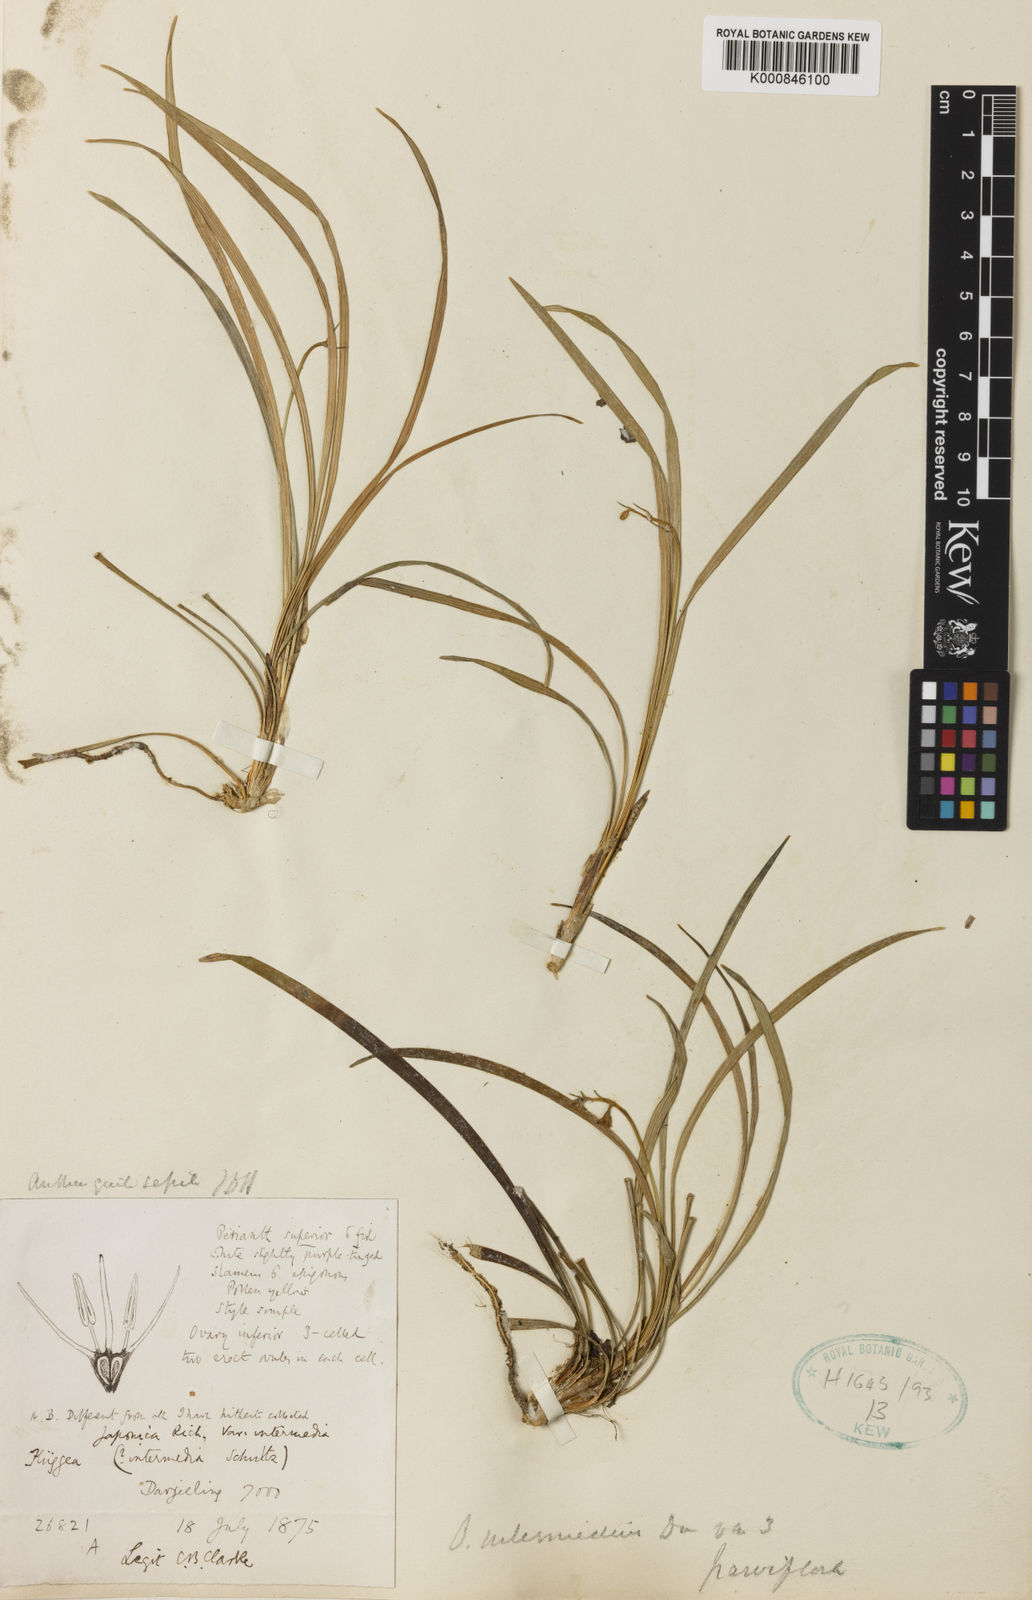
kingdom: Plantae
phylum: Tracheophyta
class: Liliopsida
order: Asparagales
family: Asparagaceae
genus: Ophiopogon
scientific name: Ophiopogon
